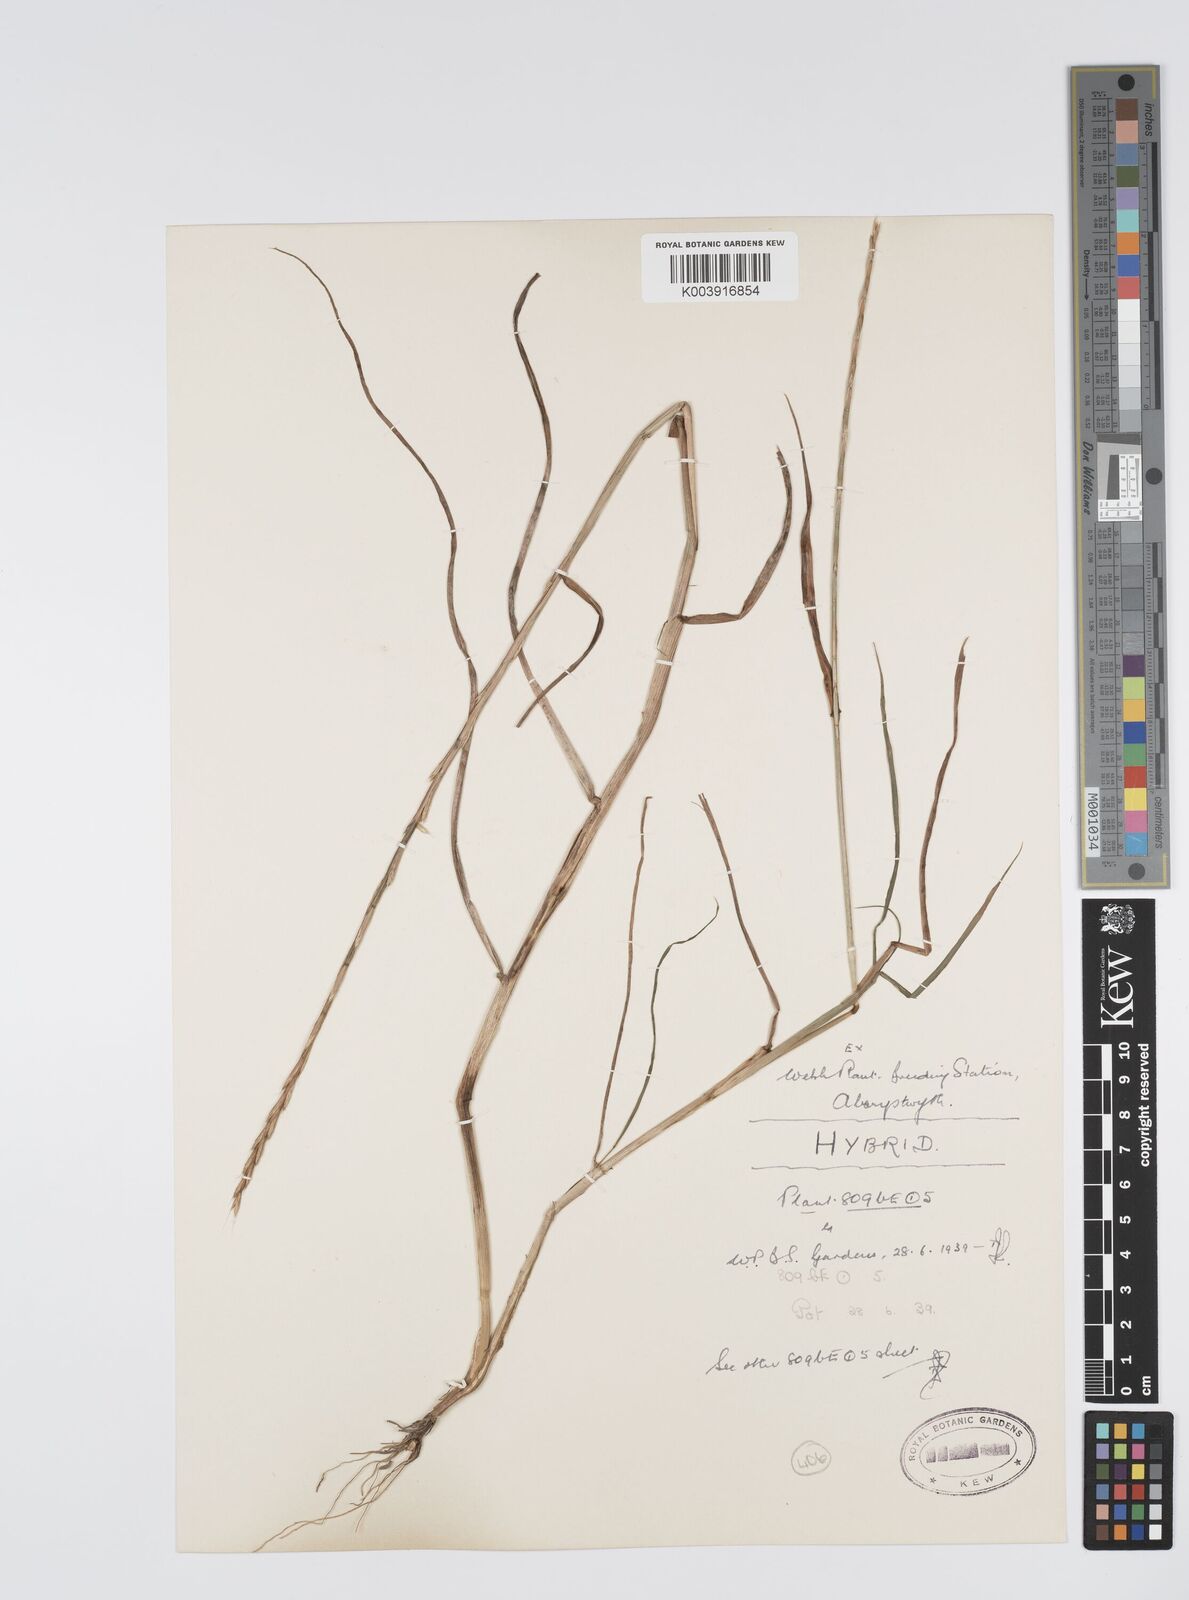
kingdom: Plantae
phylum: Tracheophyta
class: Liliopsida
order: Poales
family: Poaceae
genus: Lolium
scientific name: Lolium multiflorum
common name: Annual ryegrass
